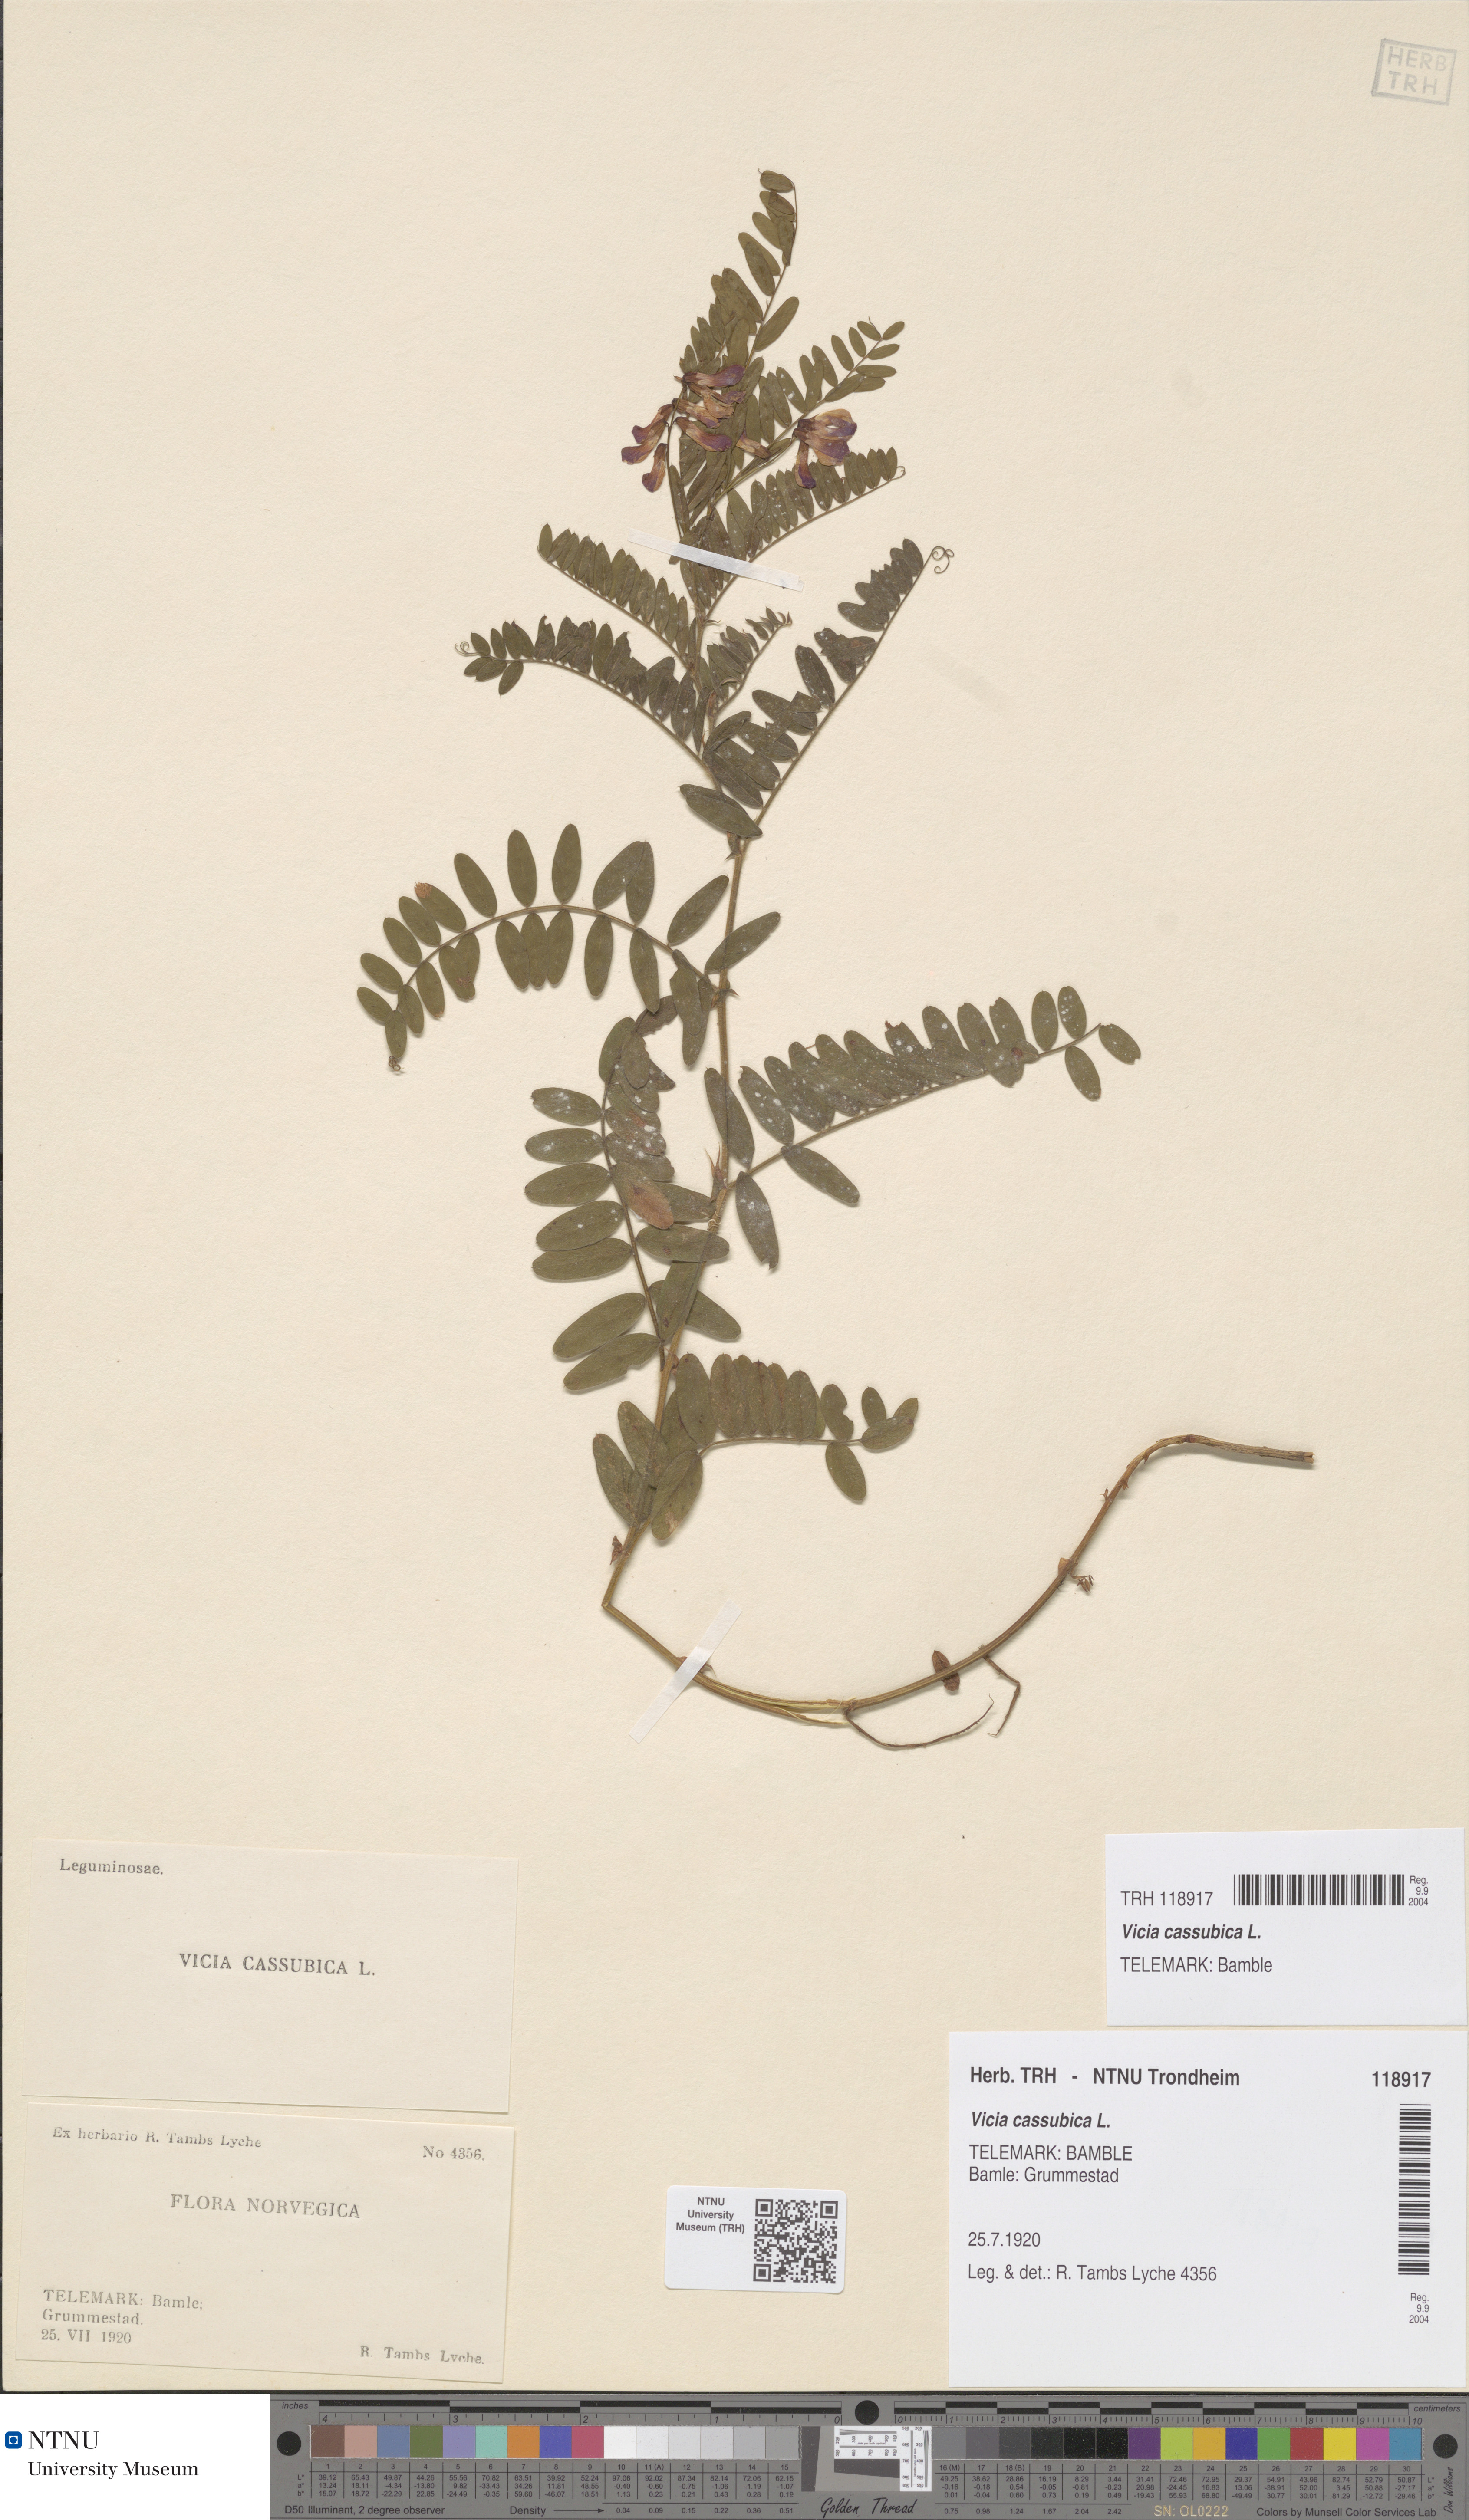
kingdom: Plantae
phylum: Tracheophyta
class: Magnoliopsida
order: Fabales
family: Fabaceae
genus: Vicia
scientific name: Vicia cassubica
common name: Danzig vetch
